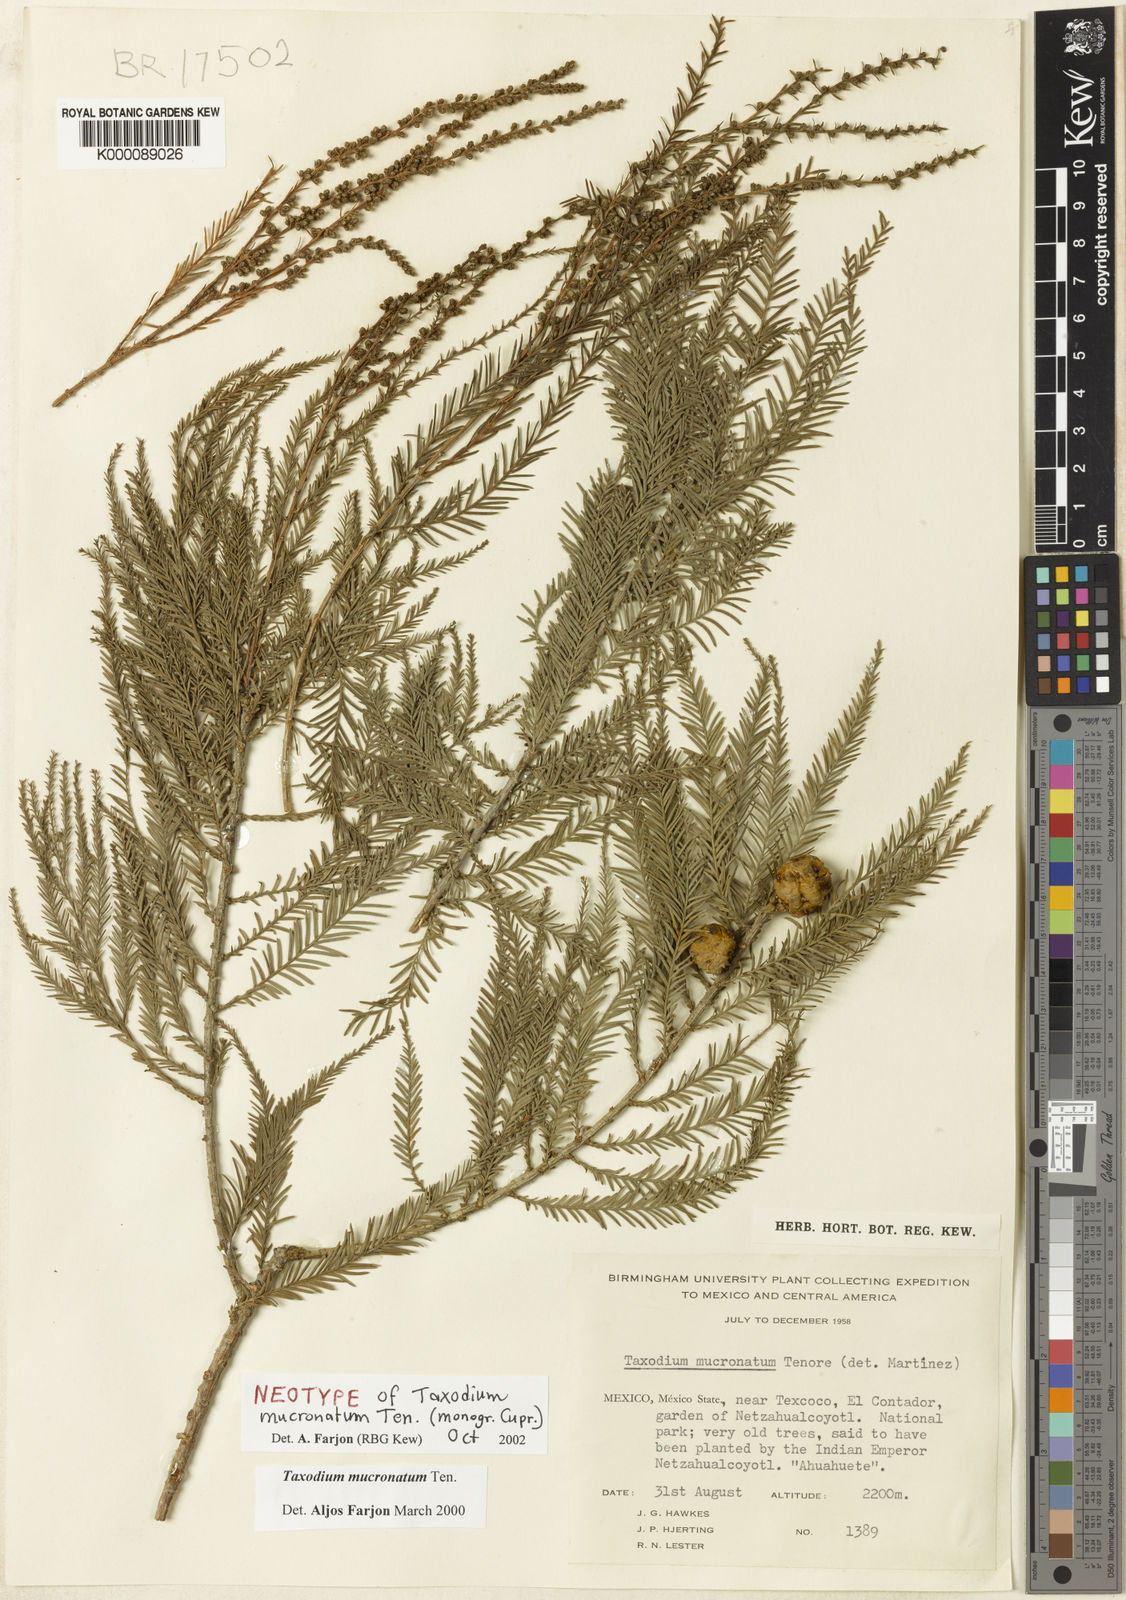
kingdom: Plantae
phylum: Tracheophyta
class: Pinopsida
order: Pinales
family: Cupressaceae
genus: Taxodium
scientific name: Taxodium mucronatum
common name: Montezume bald cypress
